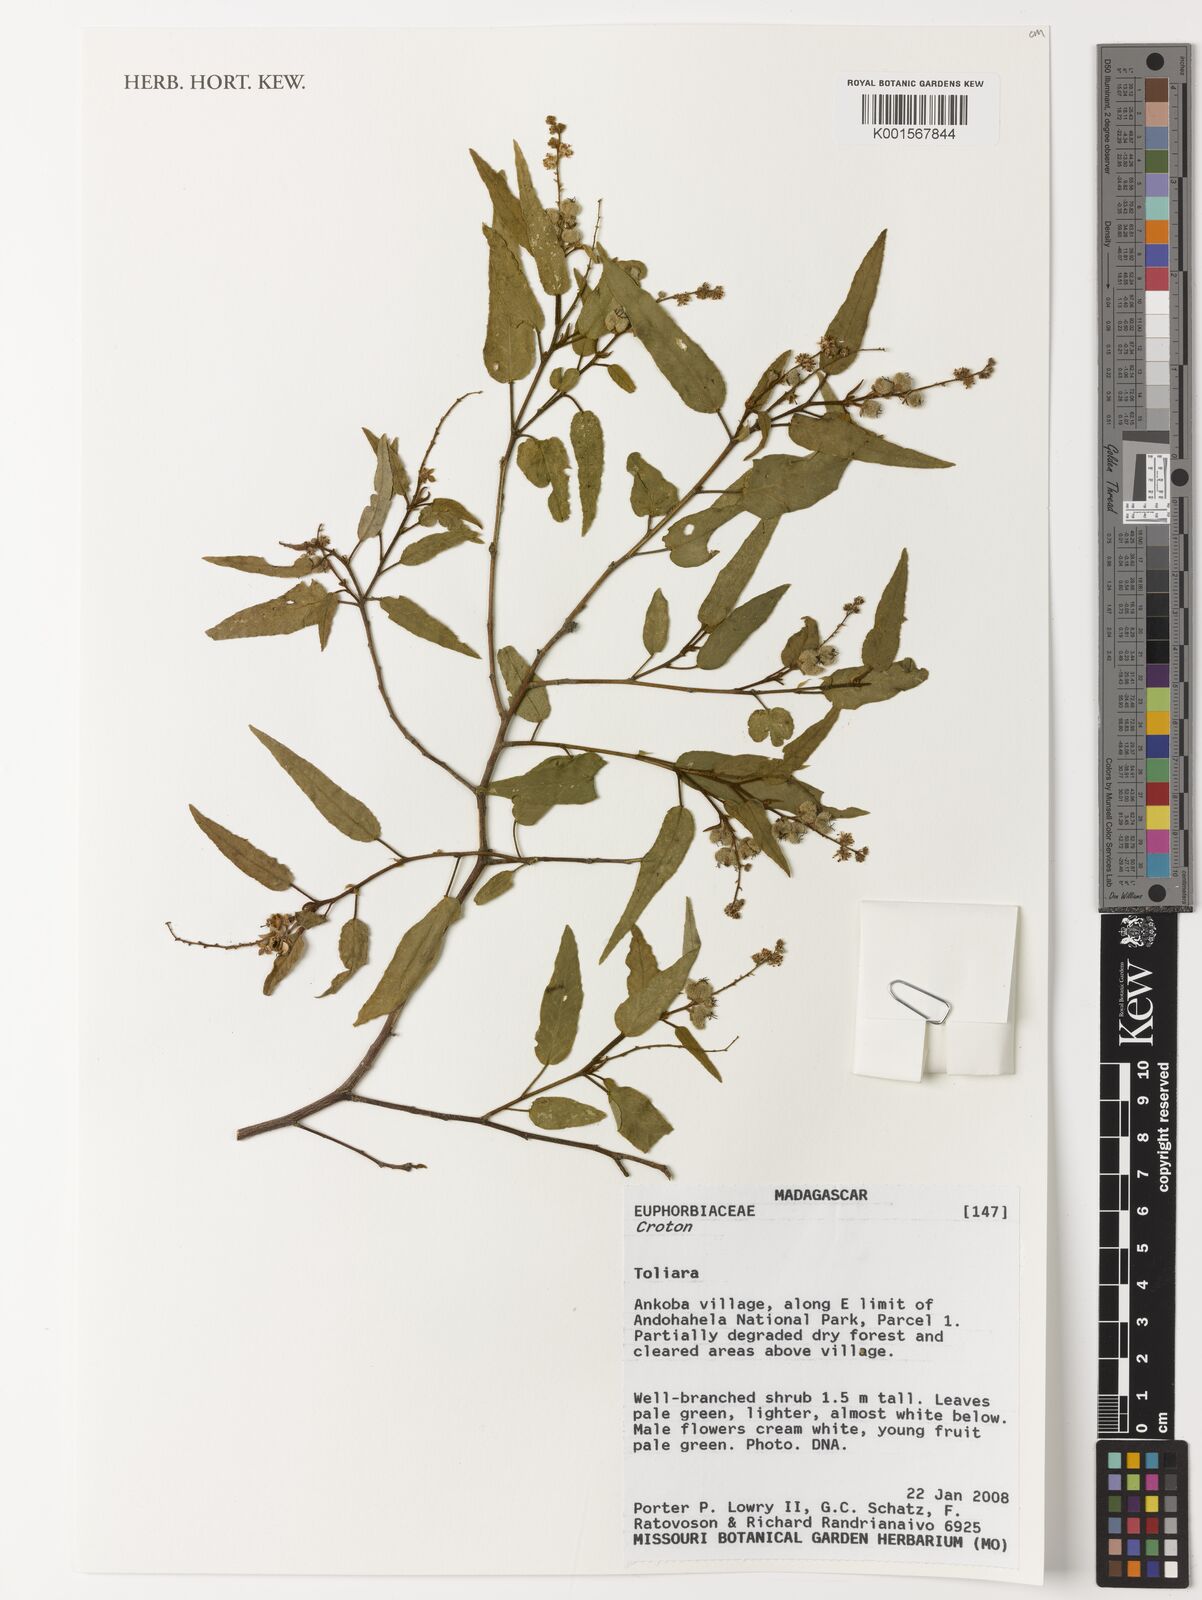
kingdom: Plantae
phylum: Tracheophyta
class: Magnoliopsida
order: Malpighiales
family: Euphorbiaceae
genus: Croton
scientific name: Croton
